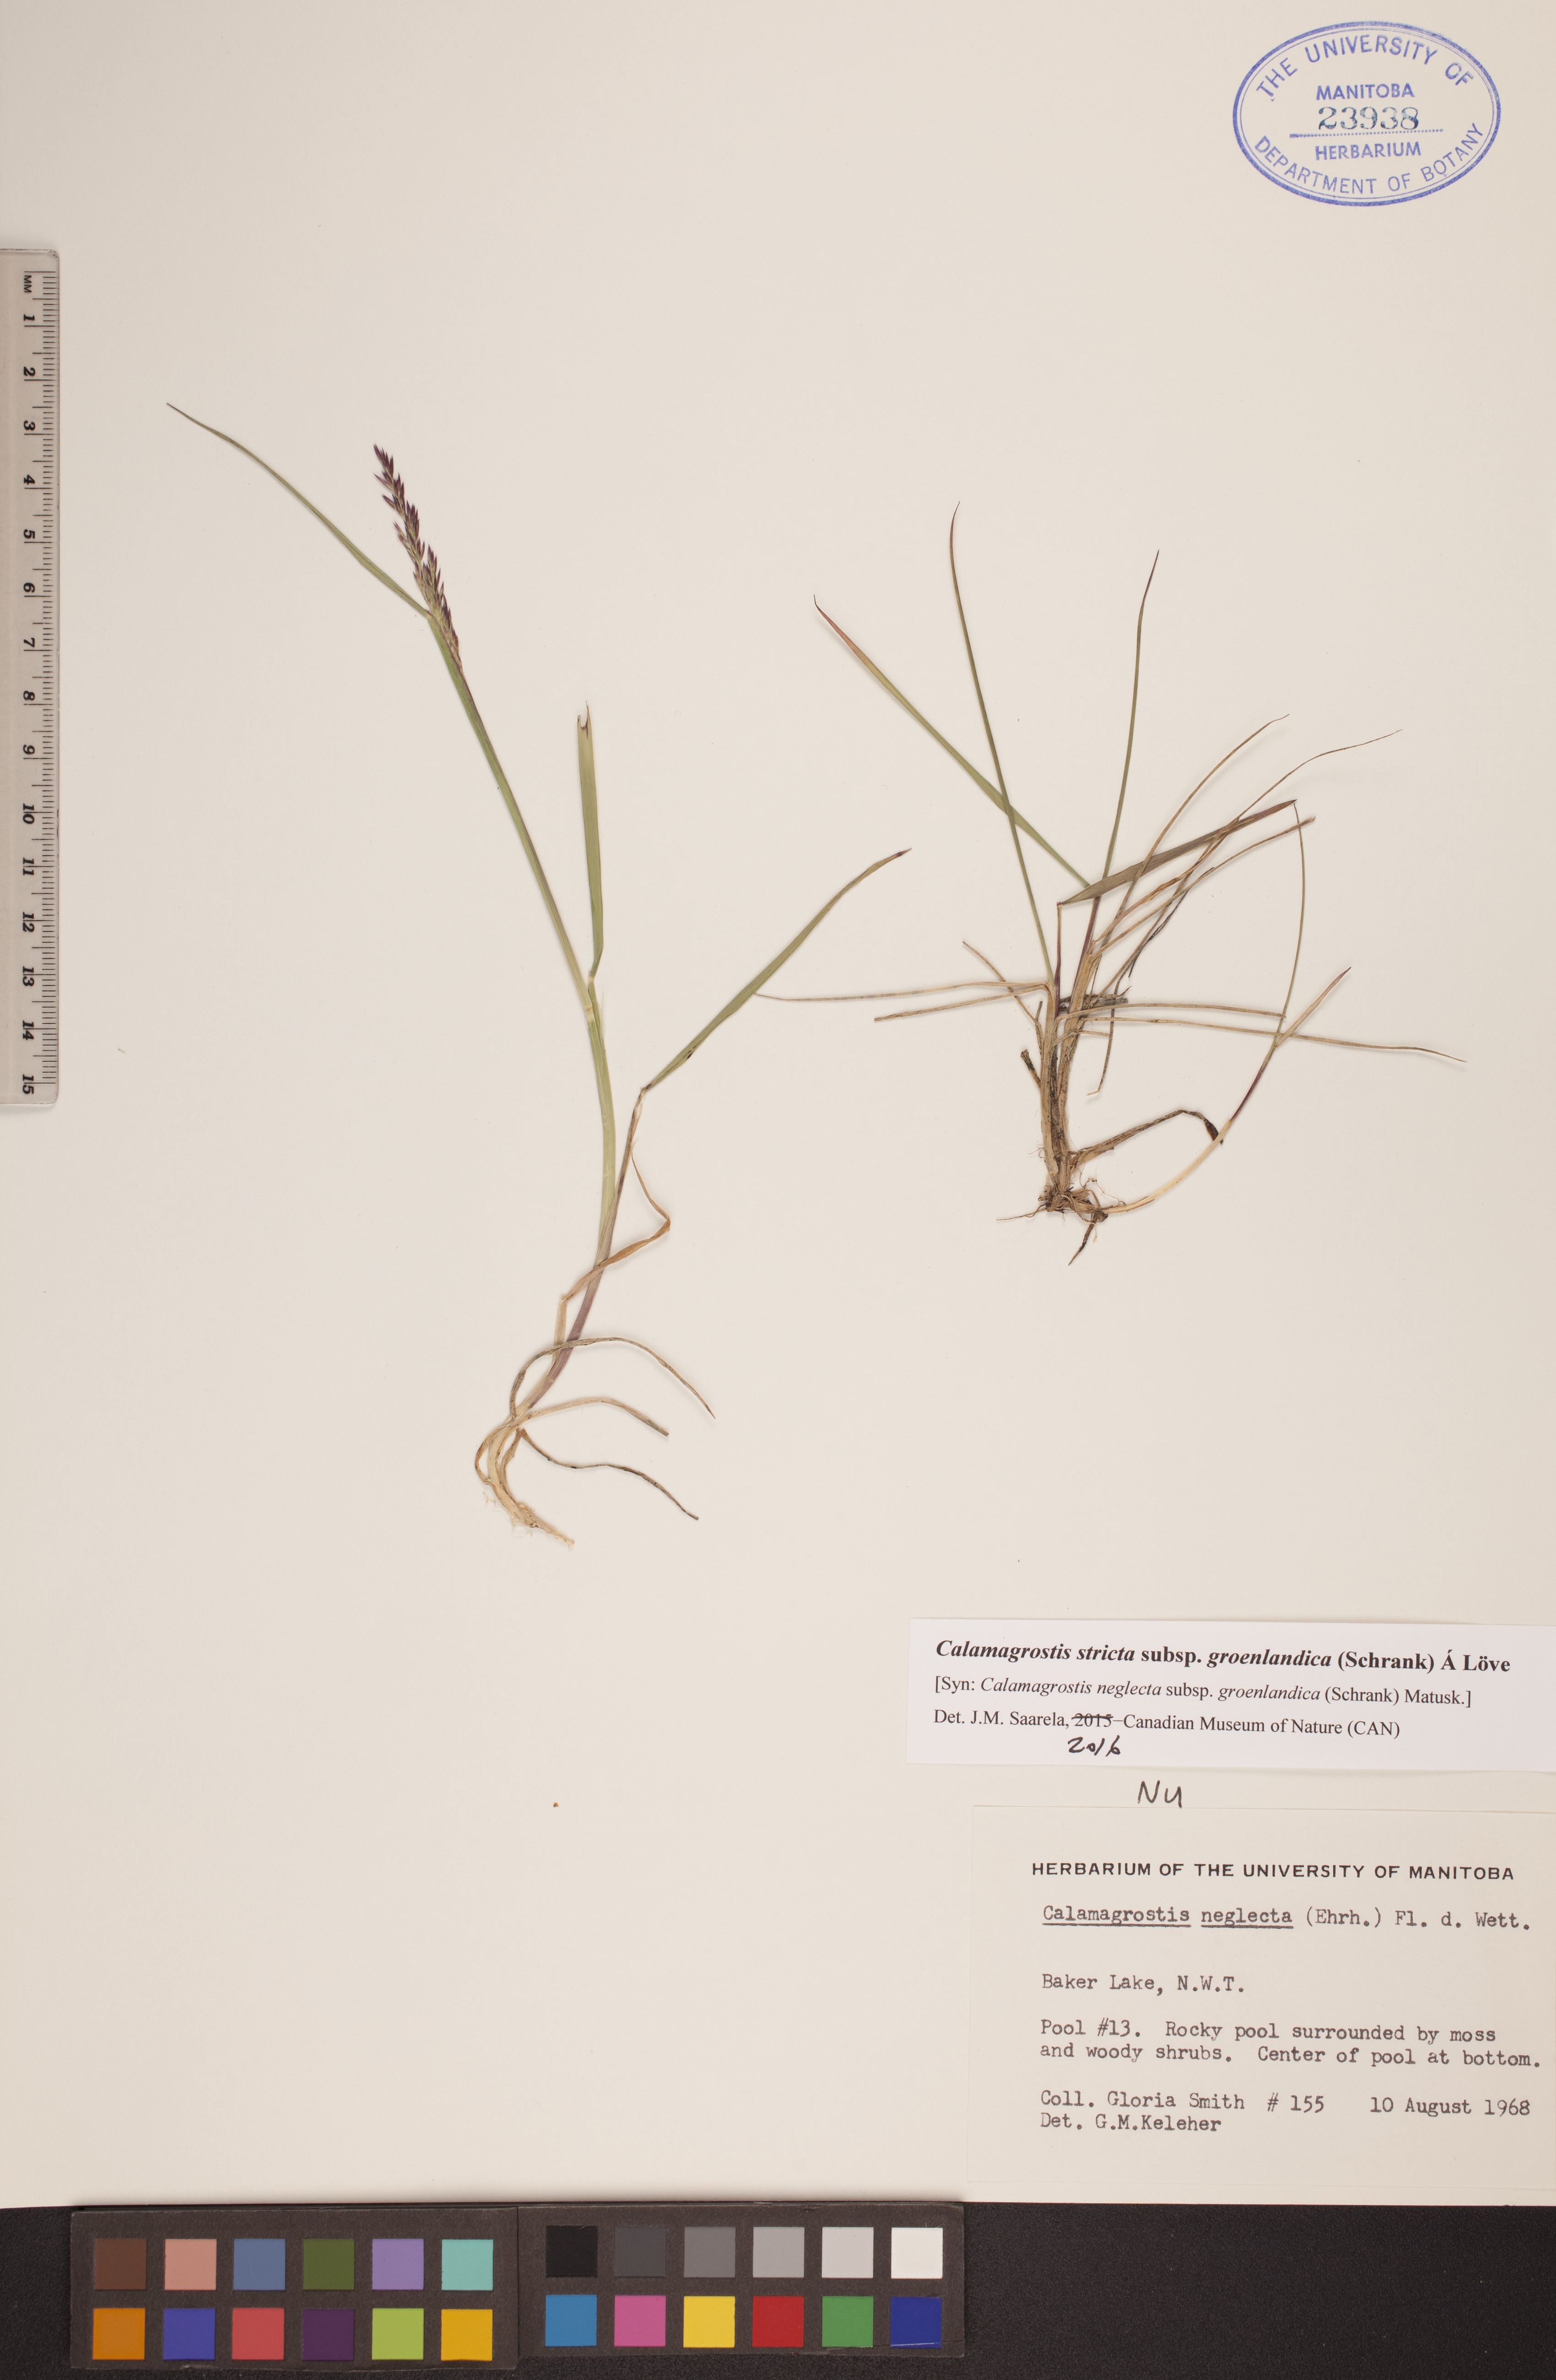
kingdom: Plantae
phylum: Tracheophyta
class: Liliopsida
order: Poales
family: Poaceae
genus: Calamagrostis
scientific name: Calamagrostis stricta
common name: Narrow small-reed
